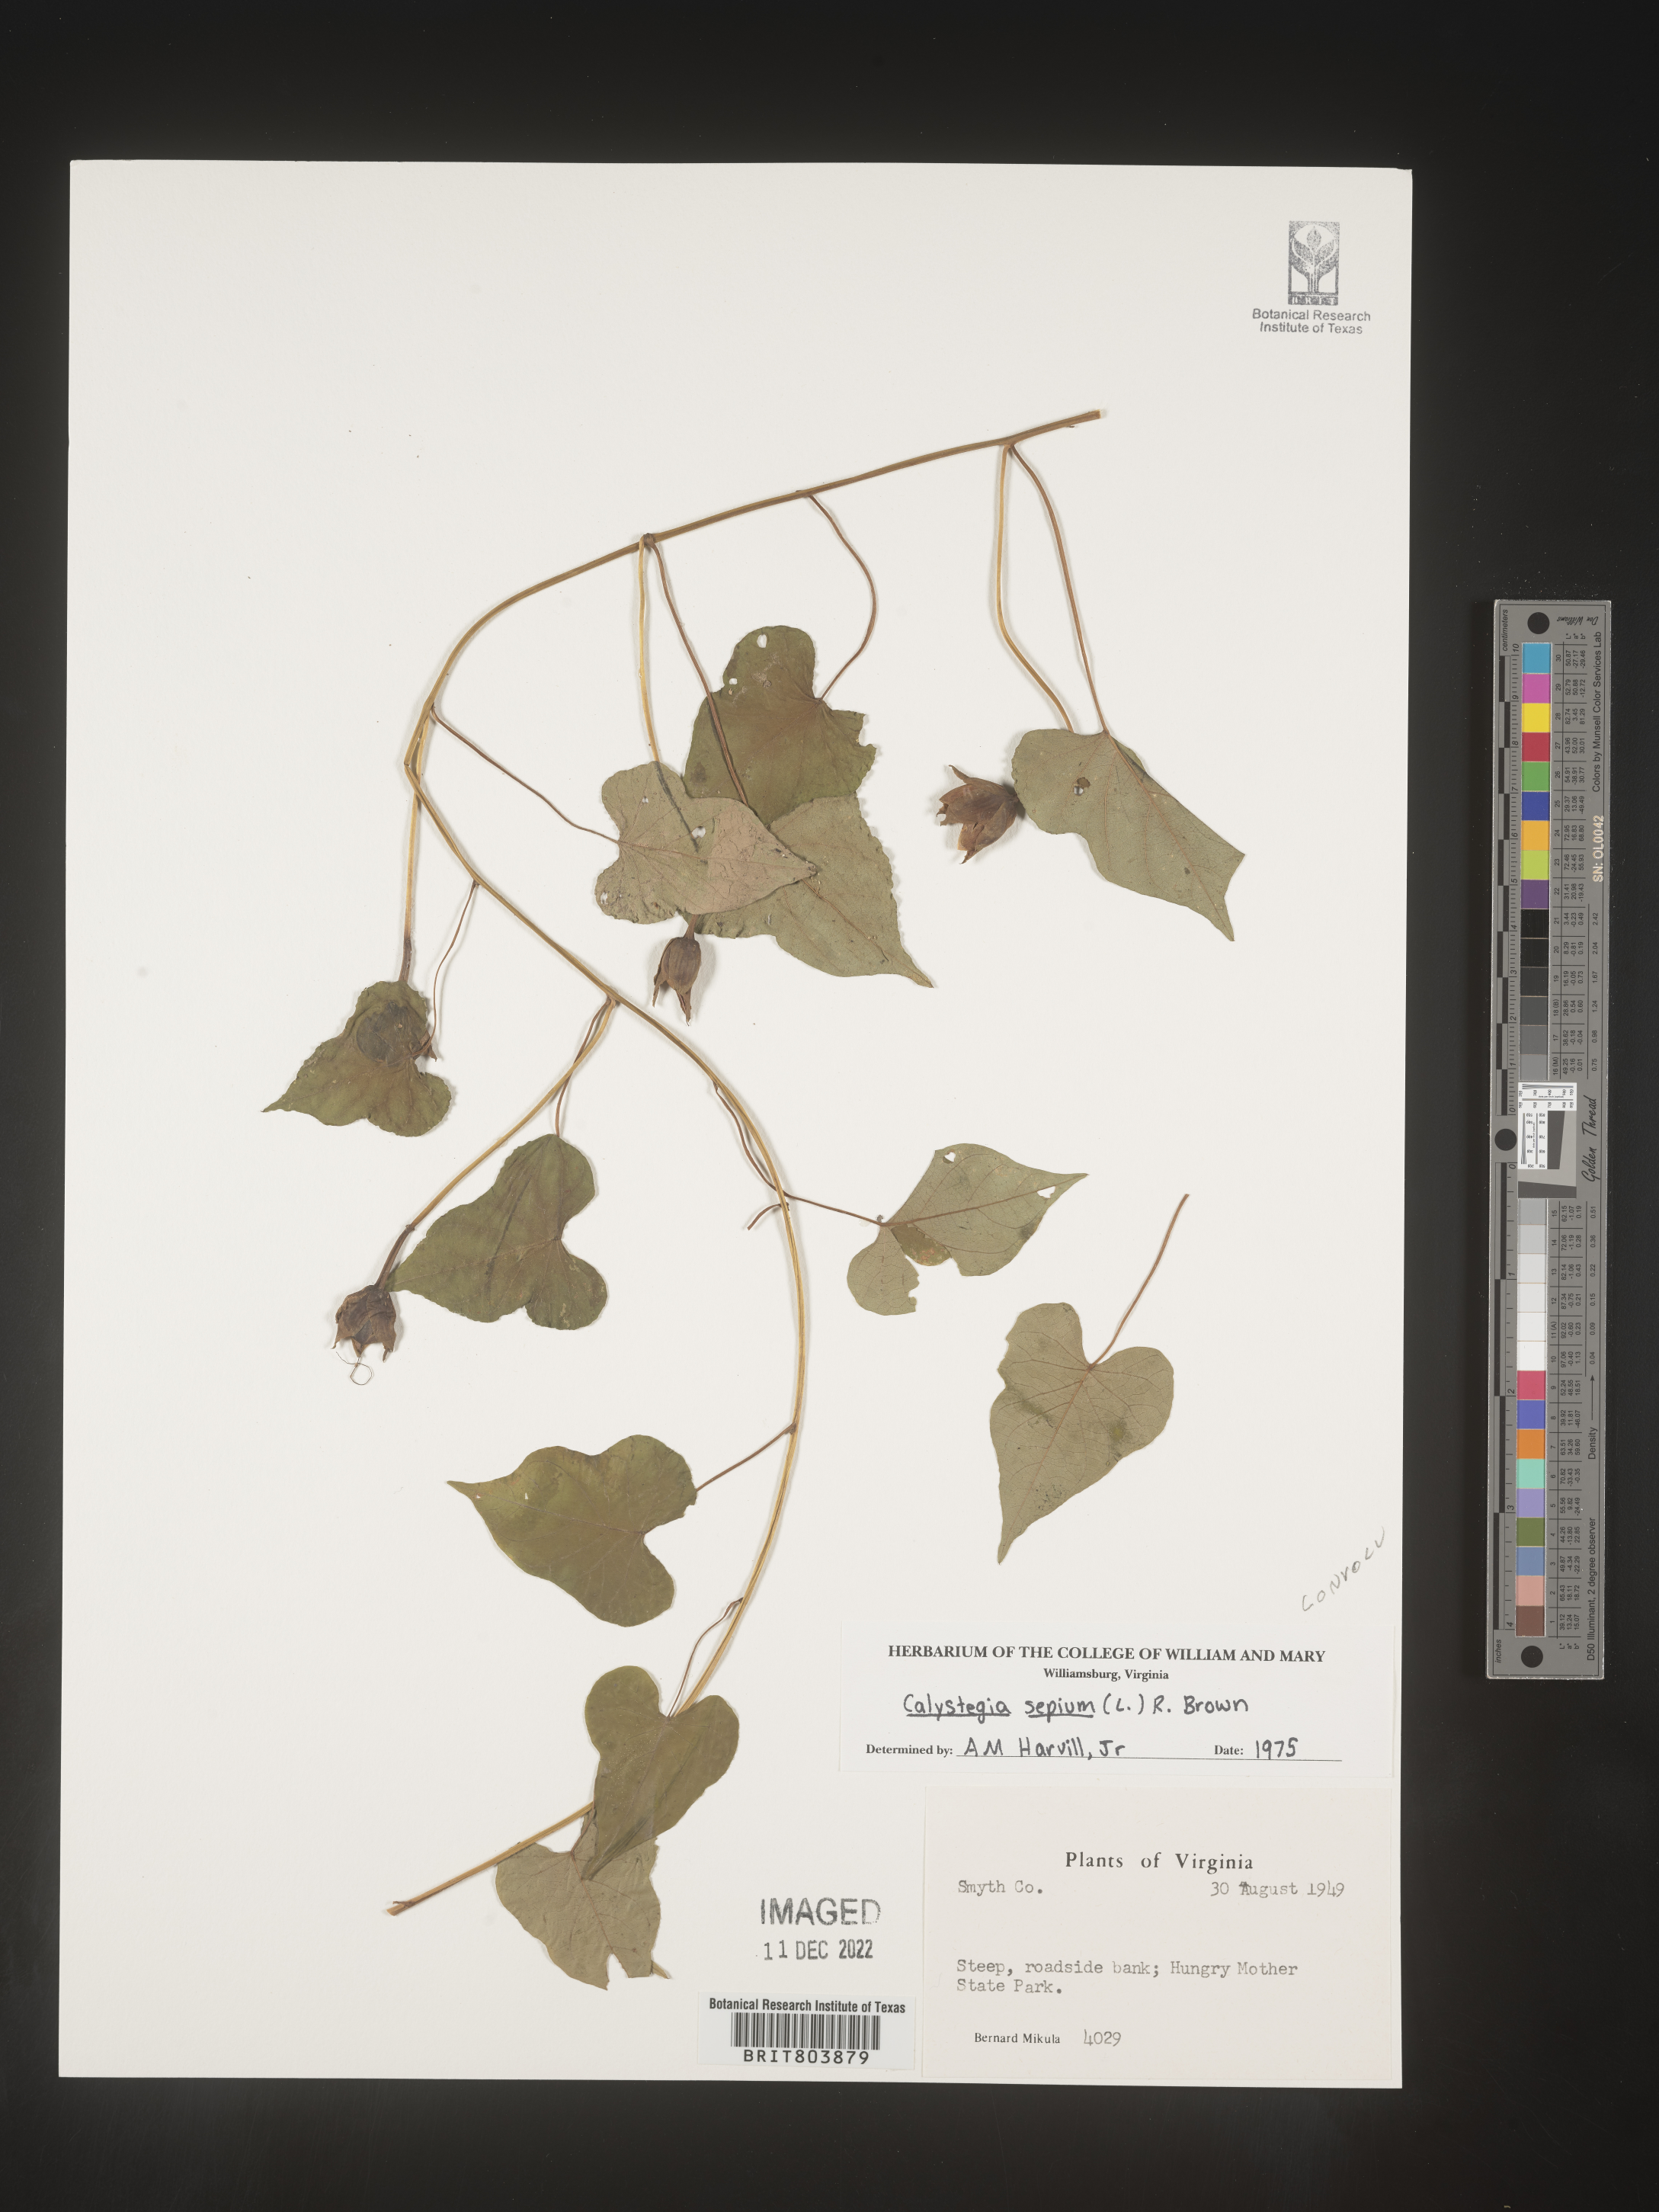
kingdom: Plantae
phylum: Tracheophyta
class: Magnoliopsida
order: Solanales
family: Convolvulaceae
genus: Calystegia
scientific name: Calystegia sepium
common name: Hedge bindweed
